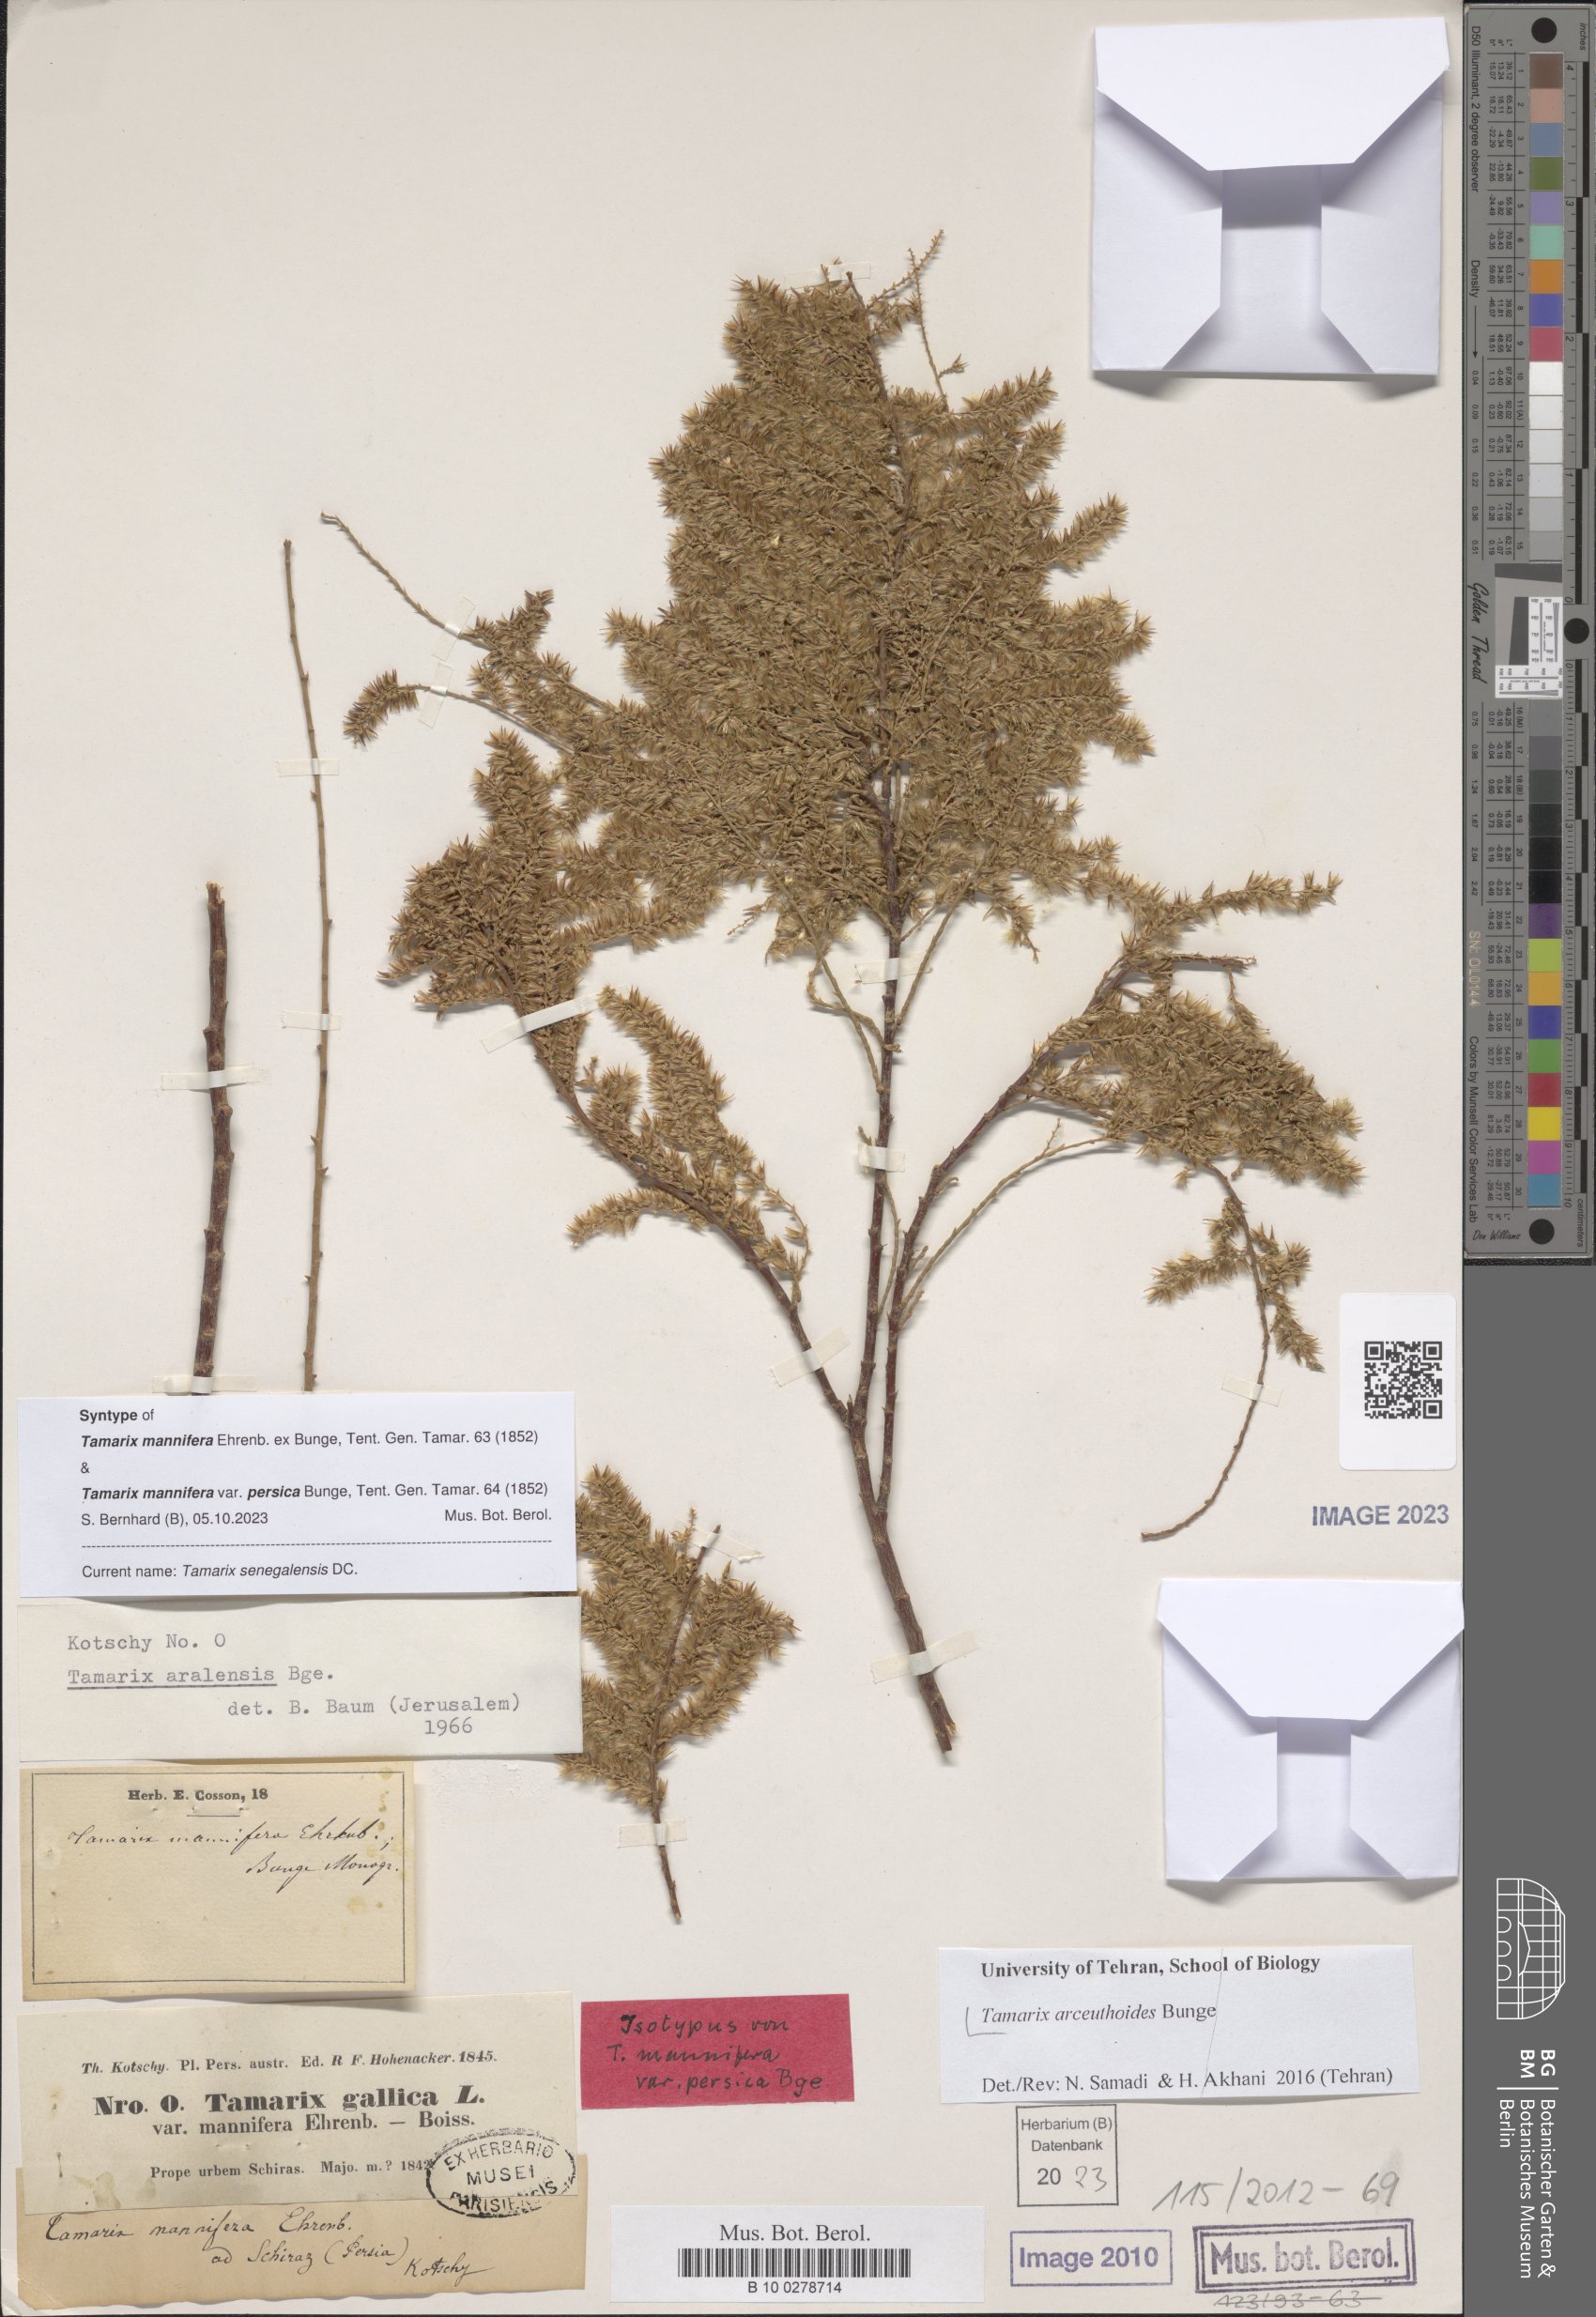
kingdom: Plantae
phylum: Tracheophyta
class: Magnoliopsida
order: Caryophyllales
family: Tamaricaceae
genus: Tamarix
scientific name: Tamarix arceuthoides
